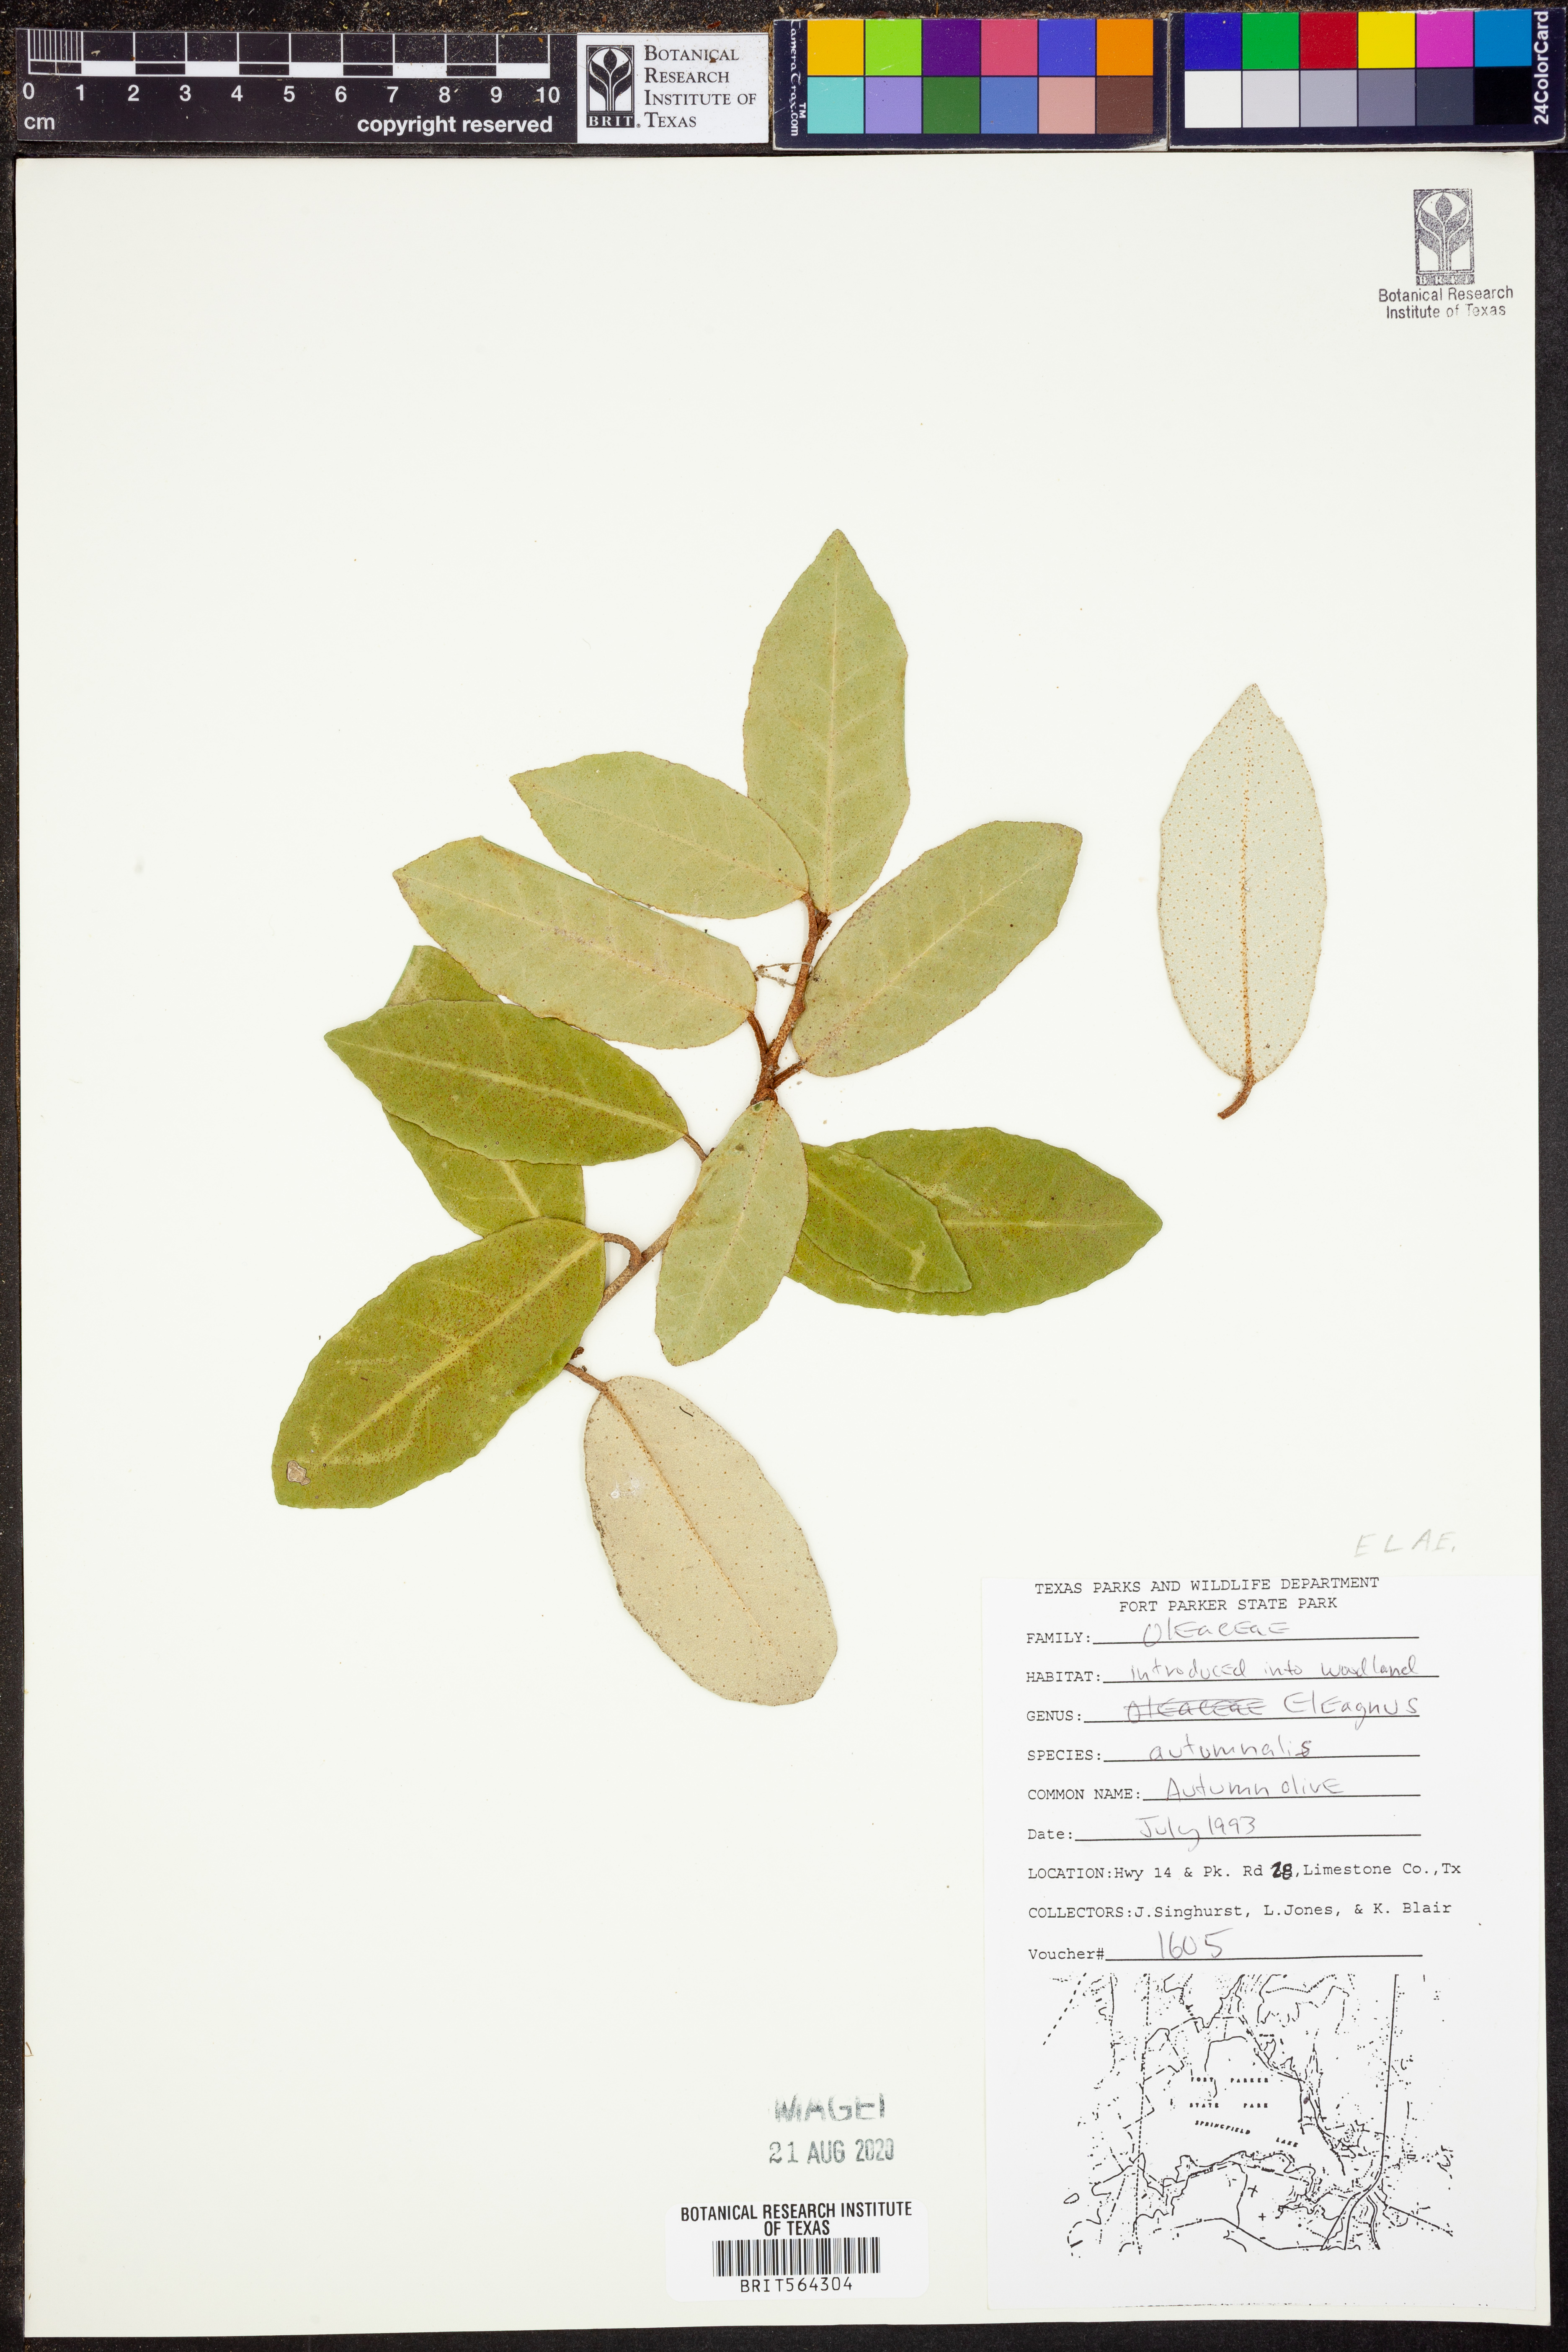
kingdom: Plantae
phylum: Tracheophyta
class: Magnoliopsida
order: Rosales
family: Elaeagnaceae
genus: Elaeagnus
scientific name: Elaeagnus
